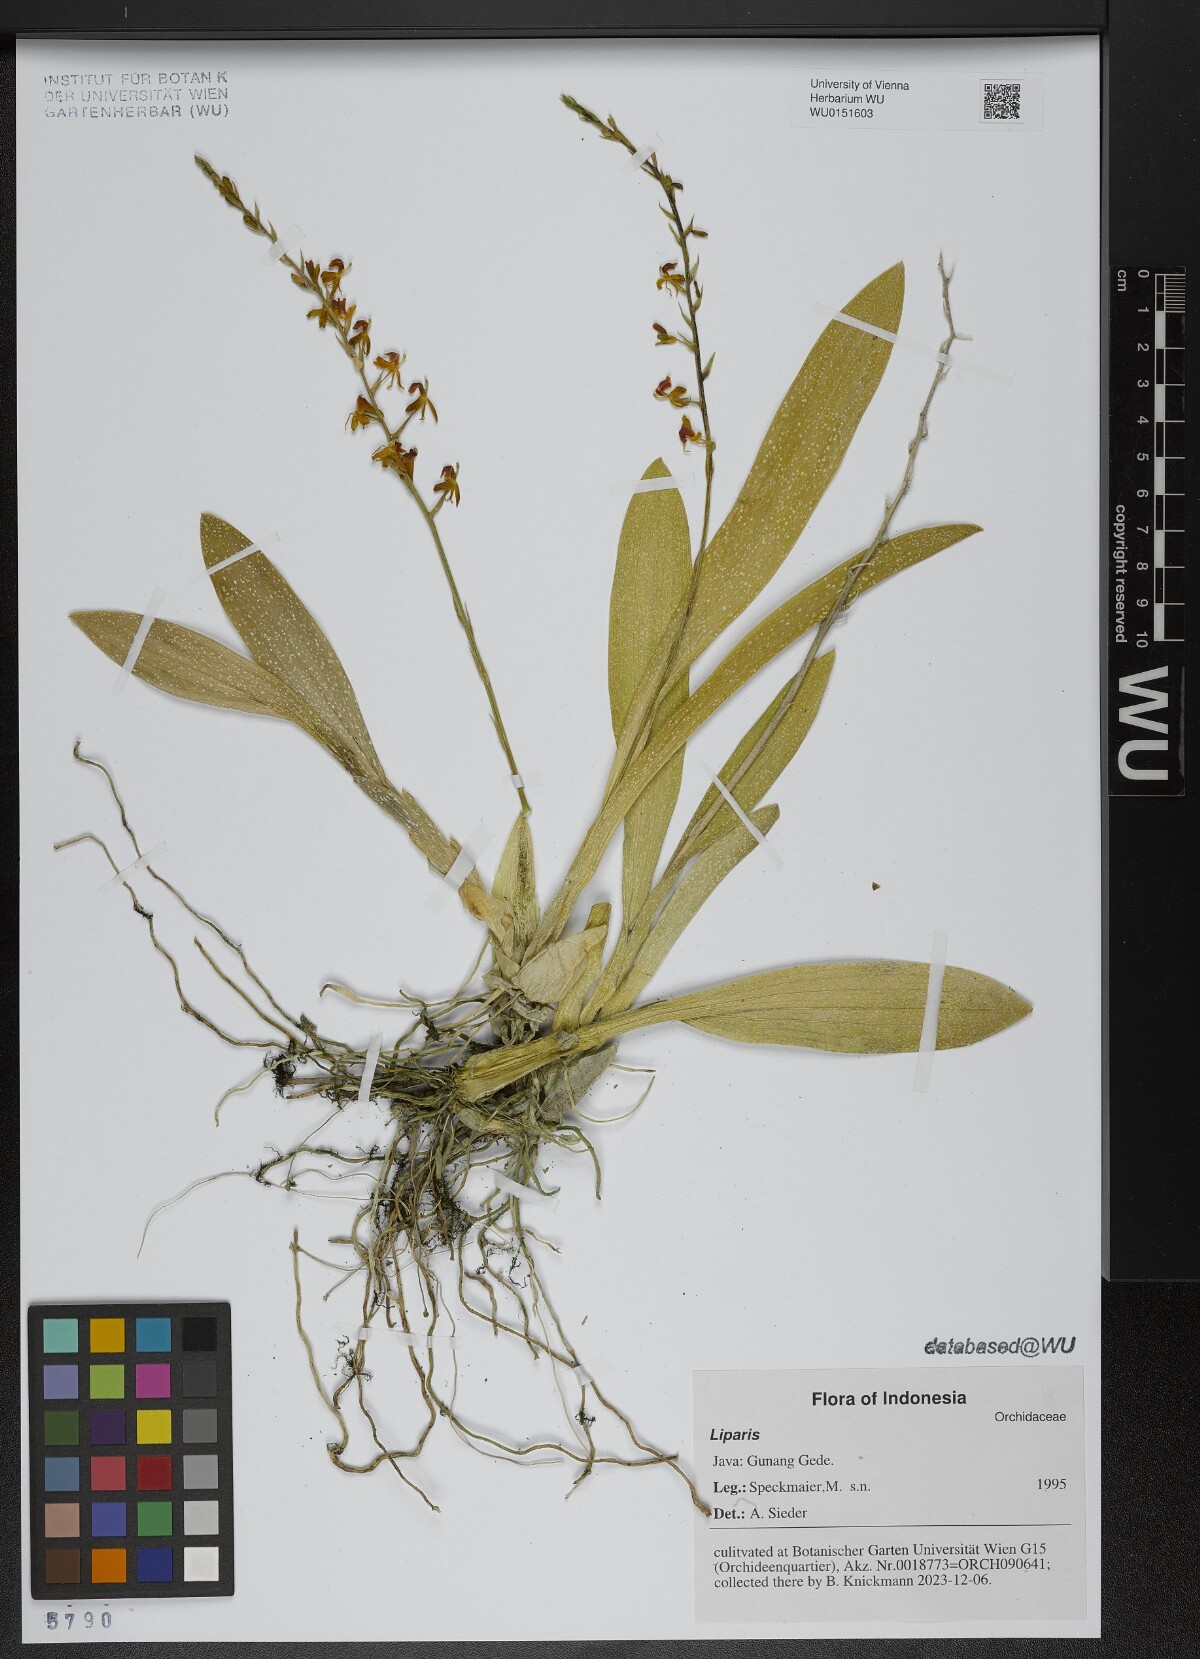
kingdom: Plantae
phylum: Tracheophyta
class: Liliopsida
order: Asparagales
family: Orchidaceae
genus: Liparis
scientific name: Liparis
